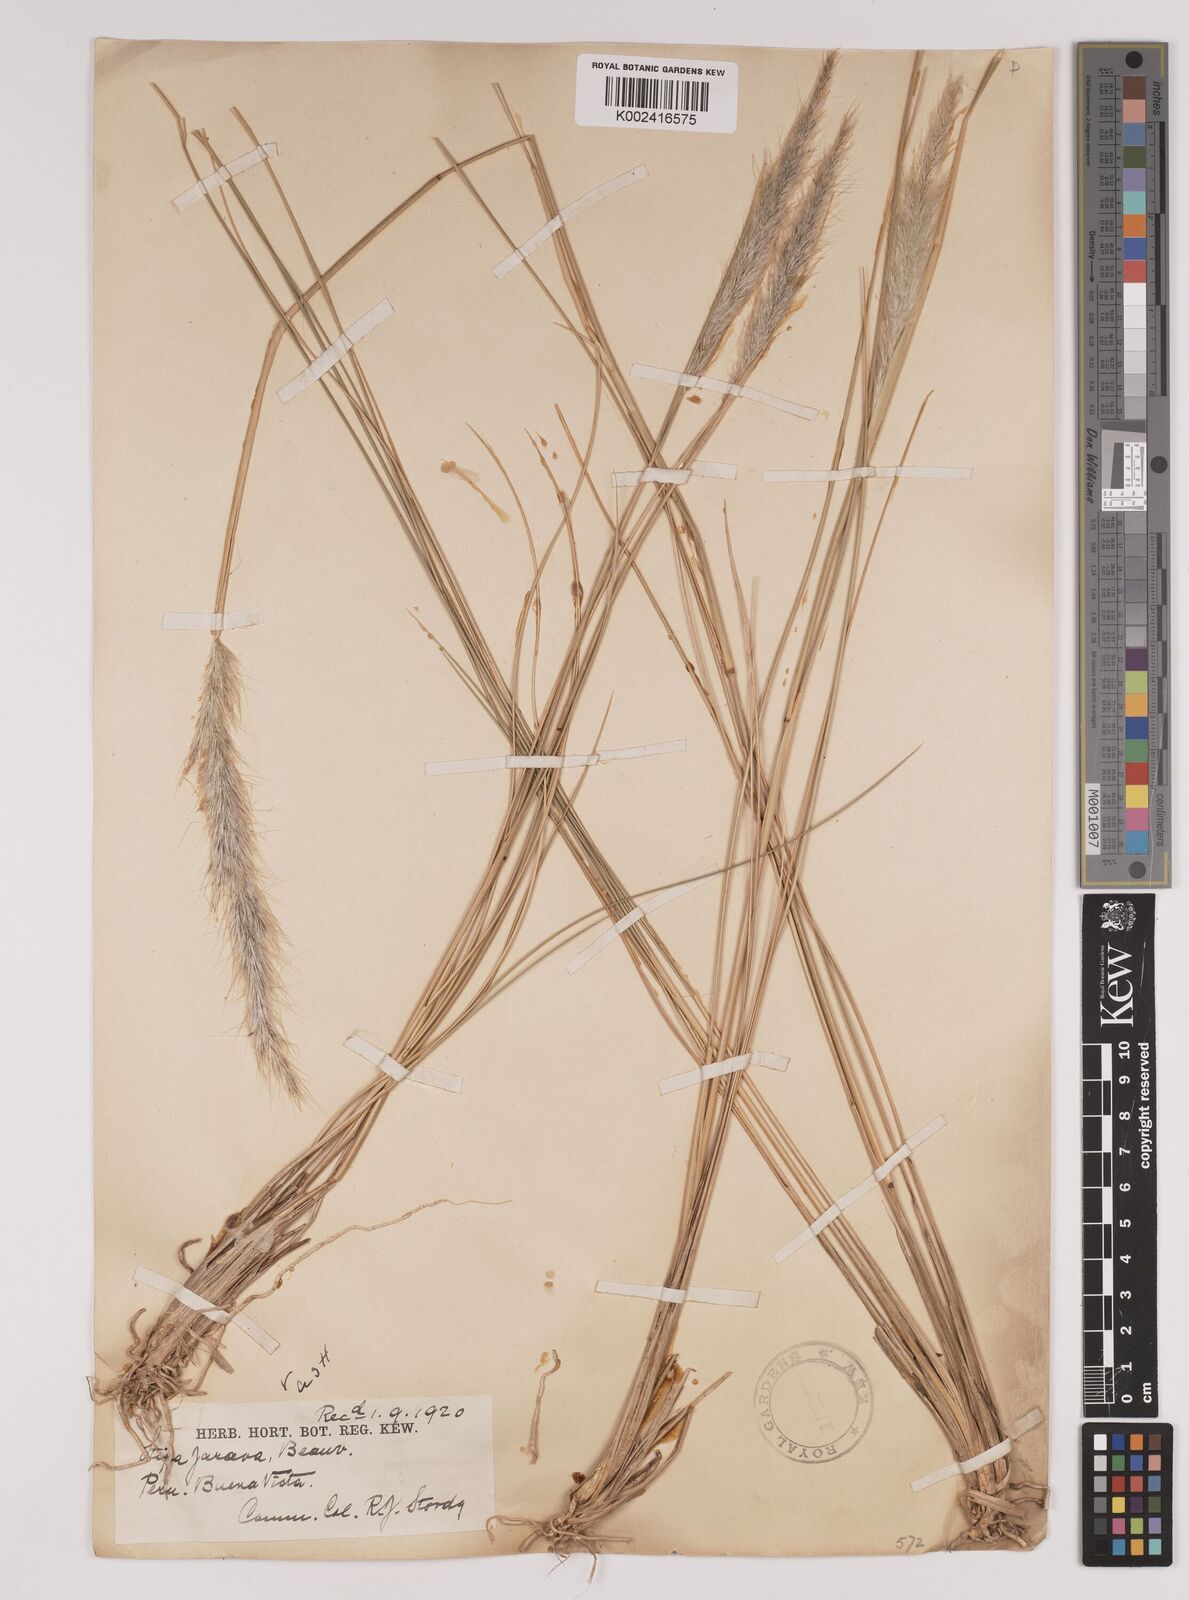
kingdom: Plantae
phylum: Tracheophyta
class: Liliopsida
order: Poales
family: Poaceae
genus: Jarava
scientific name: Jarava leptostachya
